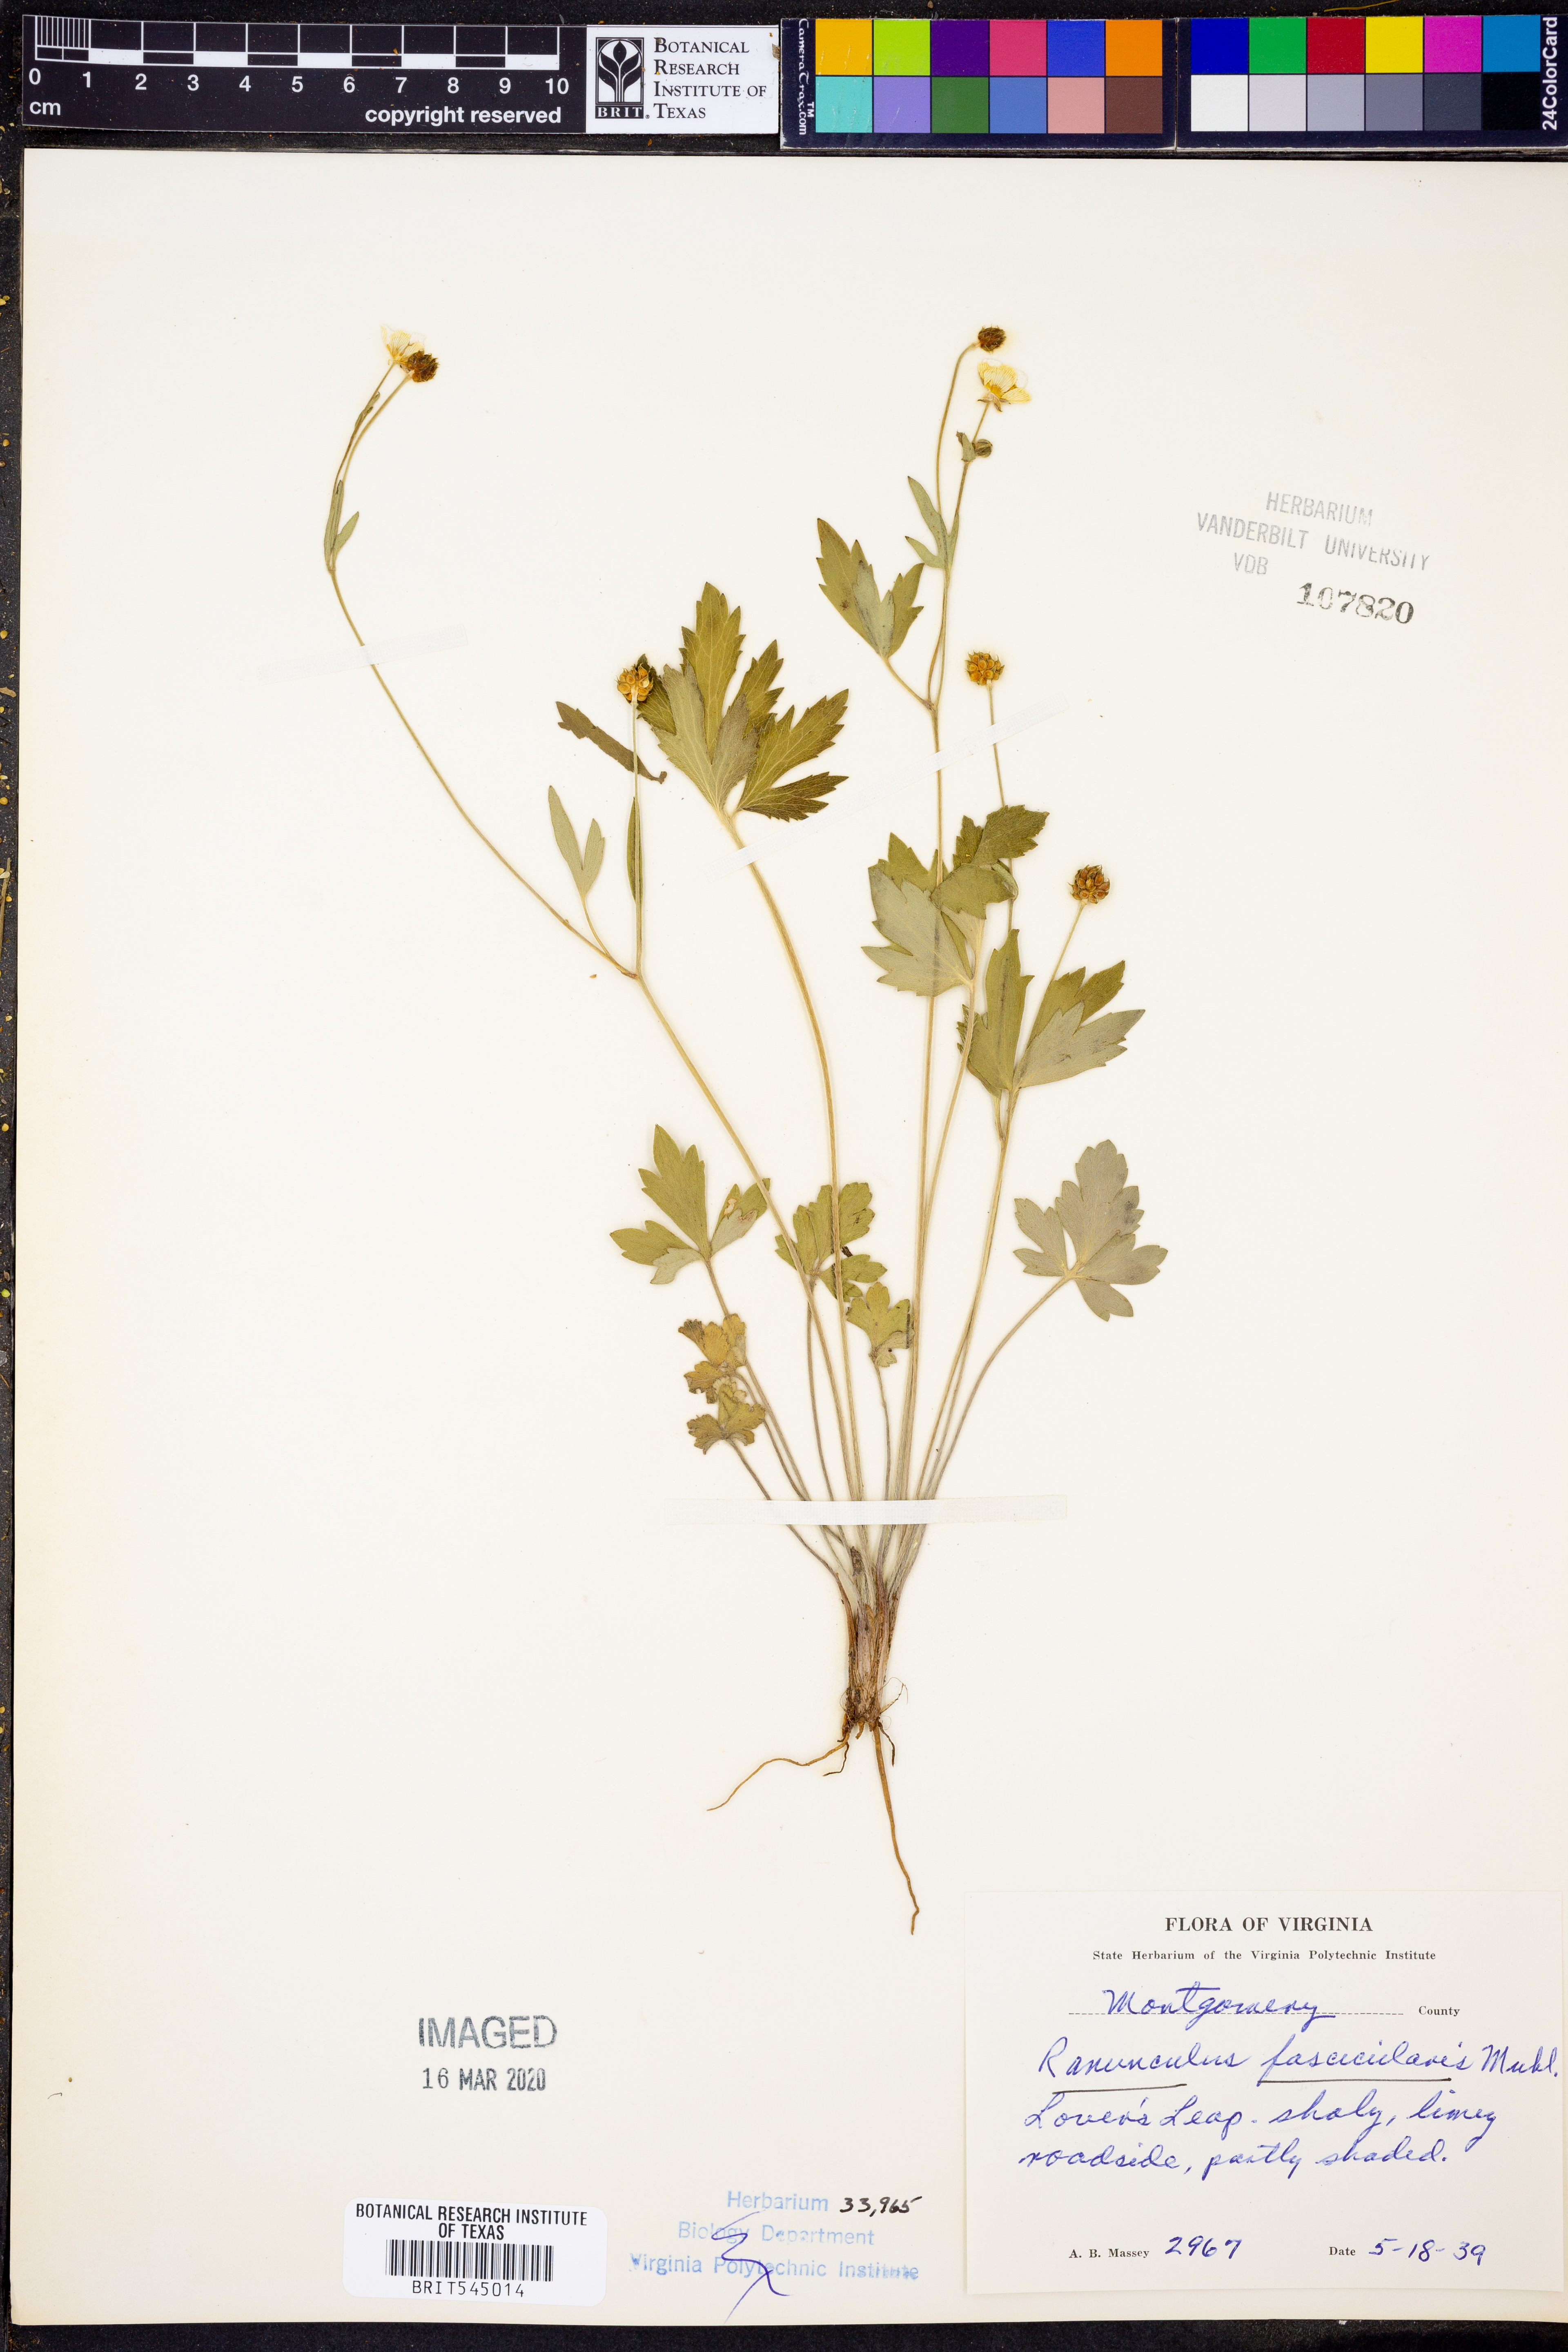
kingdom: Plantae
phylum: Tracheophyta
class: Magnoliopsida
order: Ranunculales
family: Ranunculaceae
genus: Ranunculus
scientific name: Ranunculus fascicularis
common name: Early buttercup
